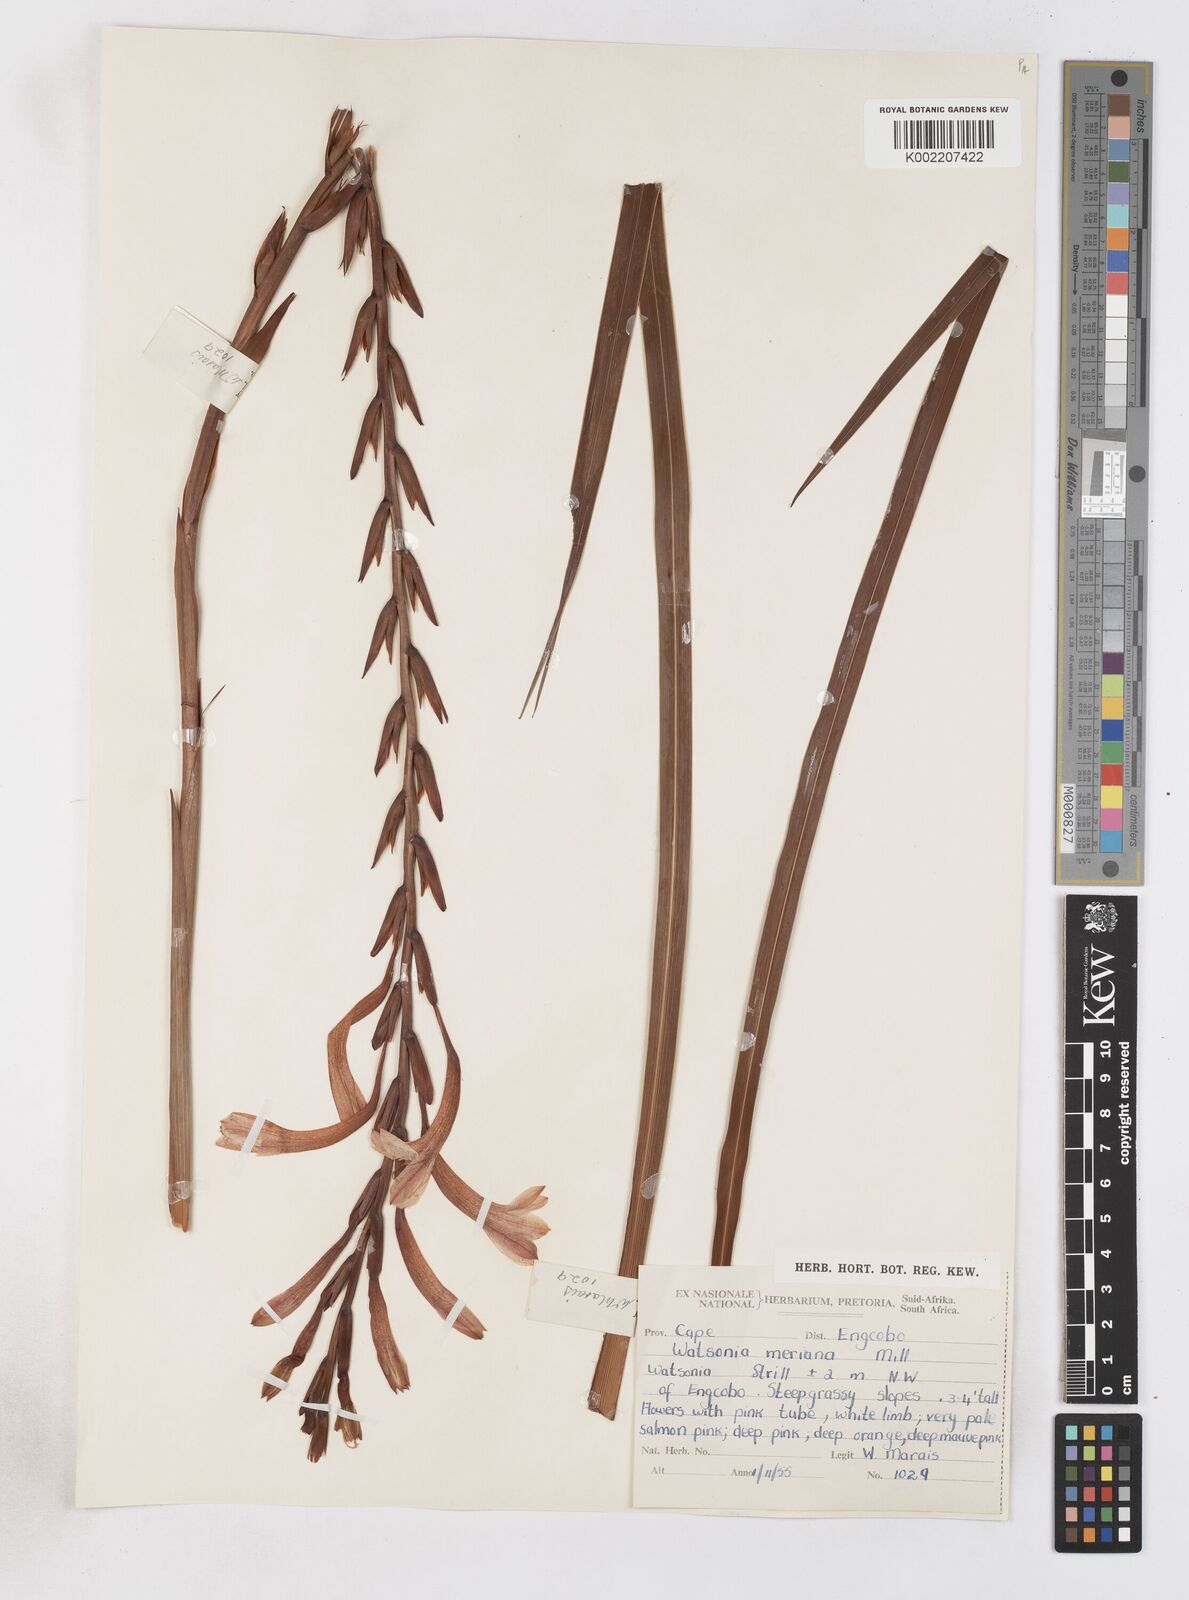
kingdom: Plantae
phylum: Tracheophyta
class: Liliopsida
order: Asparagales
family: Iridaceae
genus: Watsonia
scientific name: Watsonia pillansii
